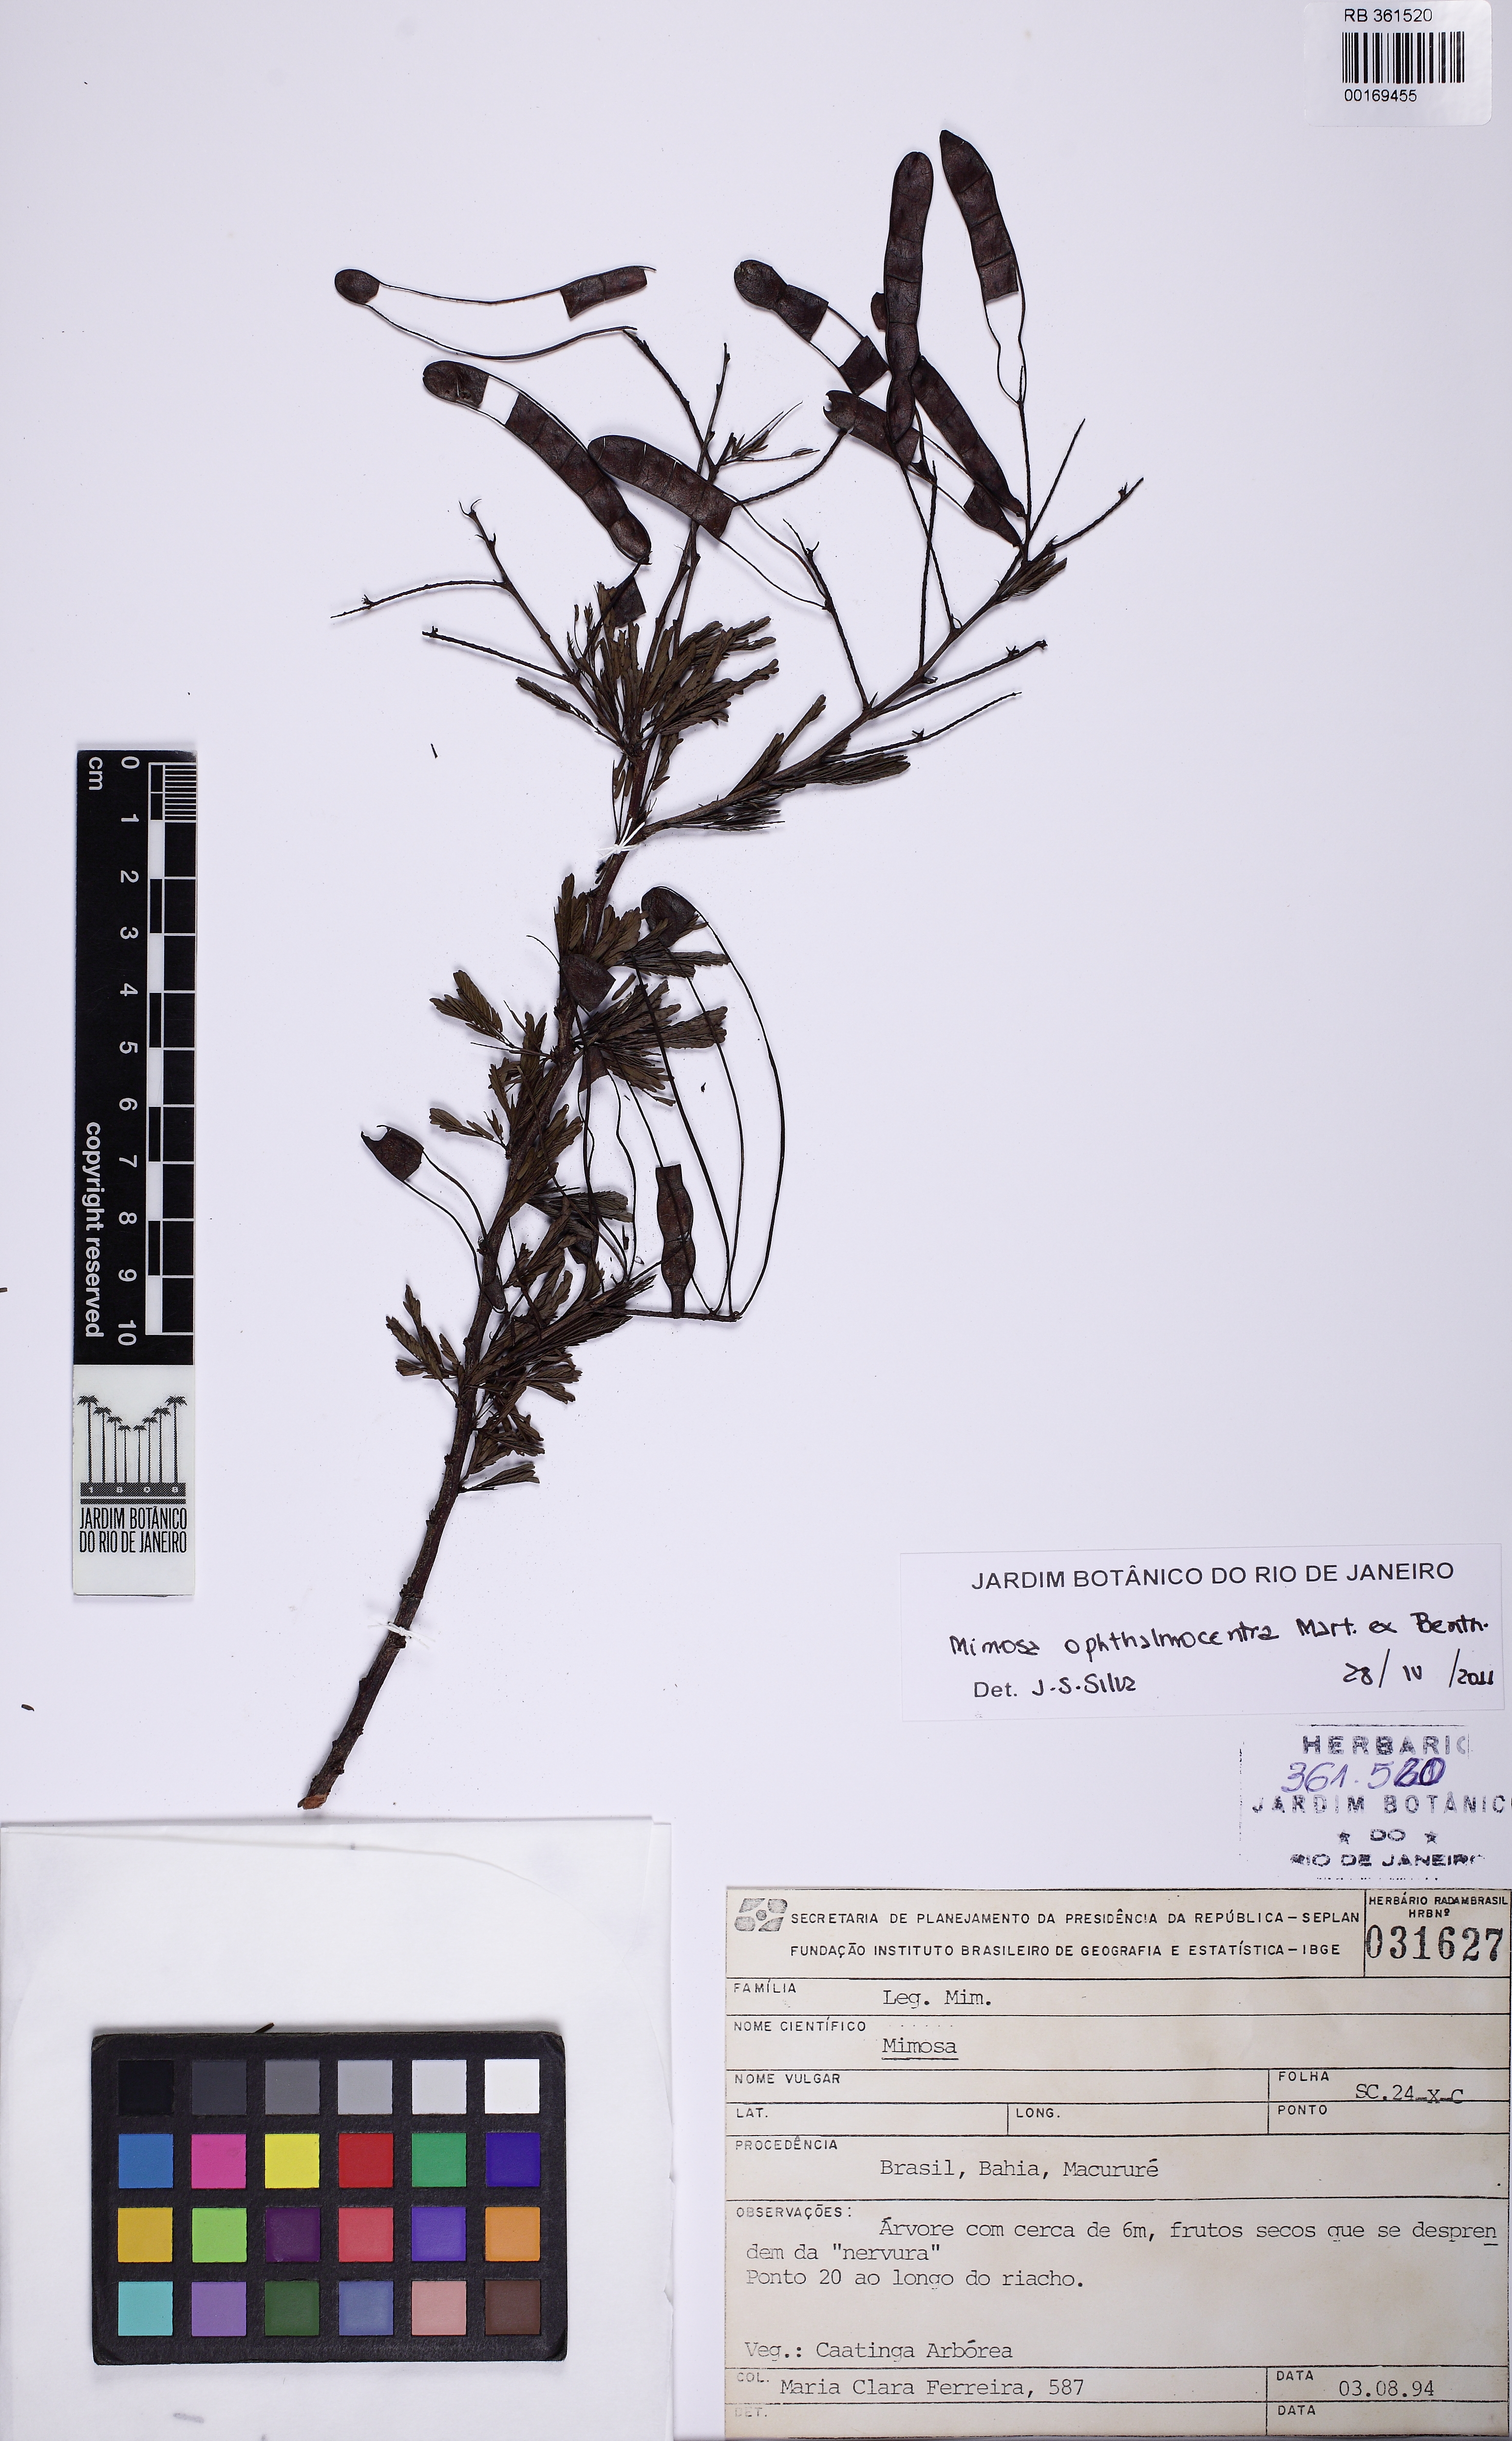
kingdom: Plantae
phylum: Tracheophyta
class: Magnoliopsida
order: Fabales
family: Fabaceae
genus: Mimosa
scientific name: Mimosa ophthalmocentra
